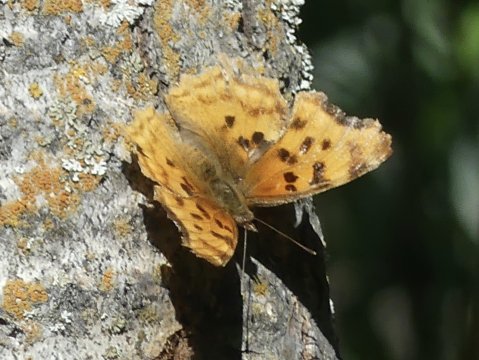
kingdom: Animalia
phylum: Arthropoda
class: Insecta
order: Lepidoptera
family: Nymphalidae
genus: Polygonia
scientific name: Polygonia satyrus
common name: Satyr Comma
